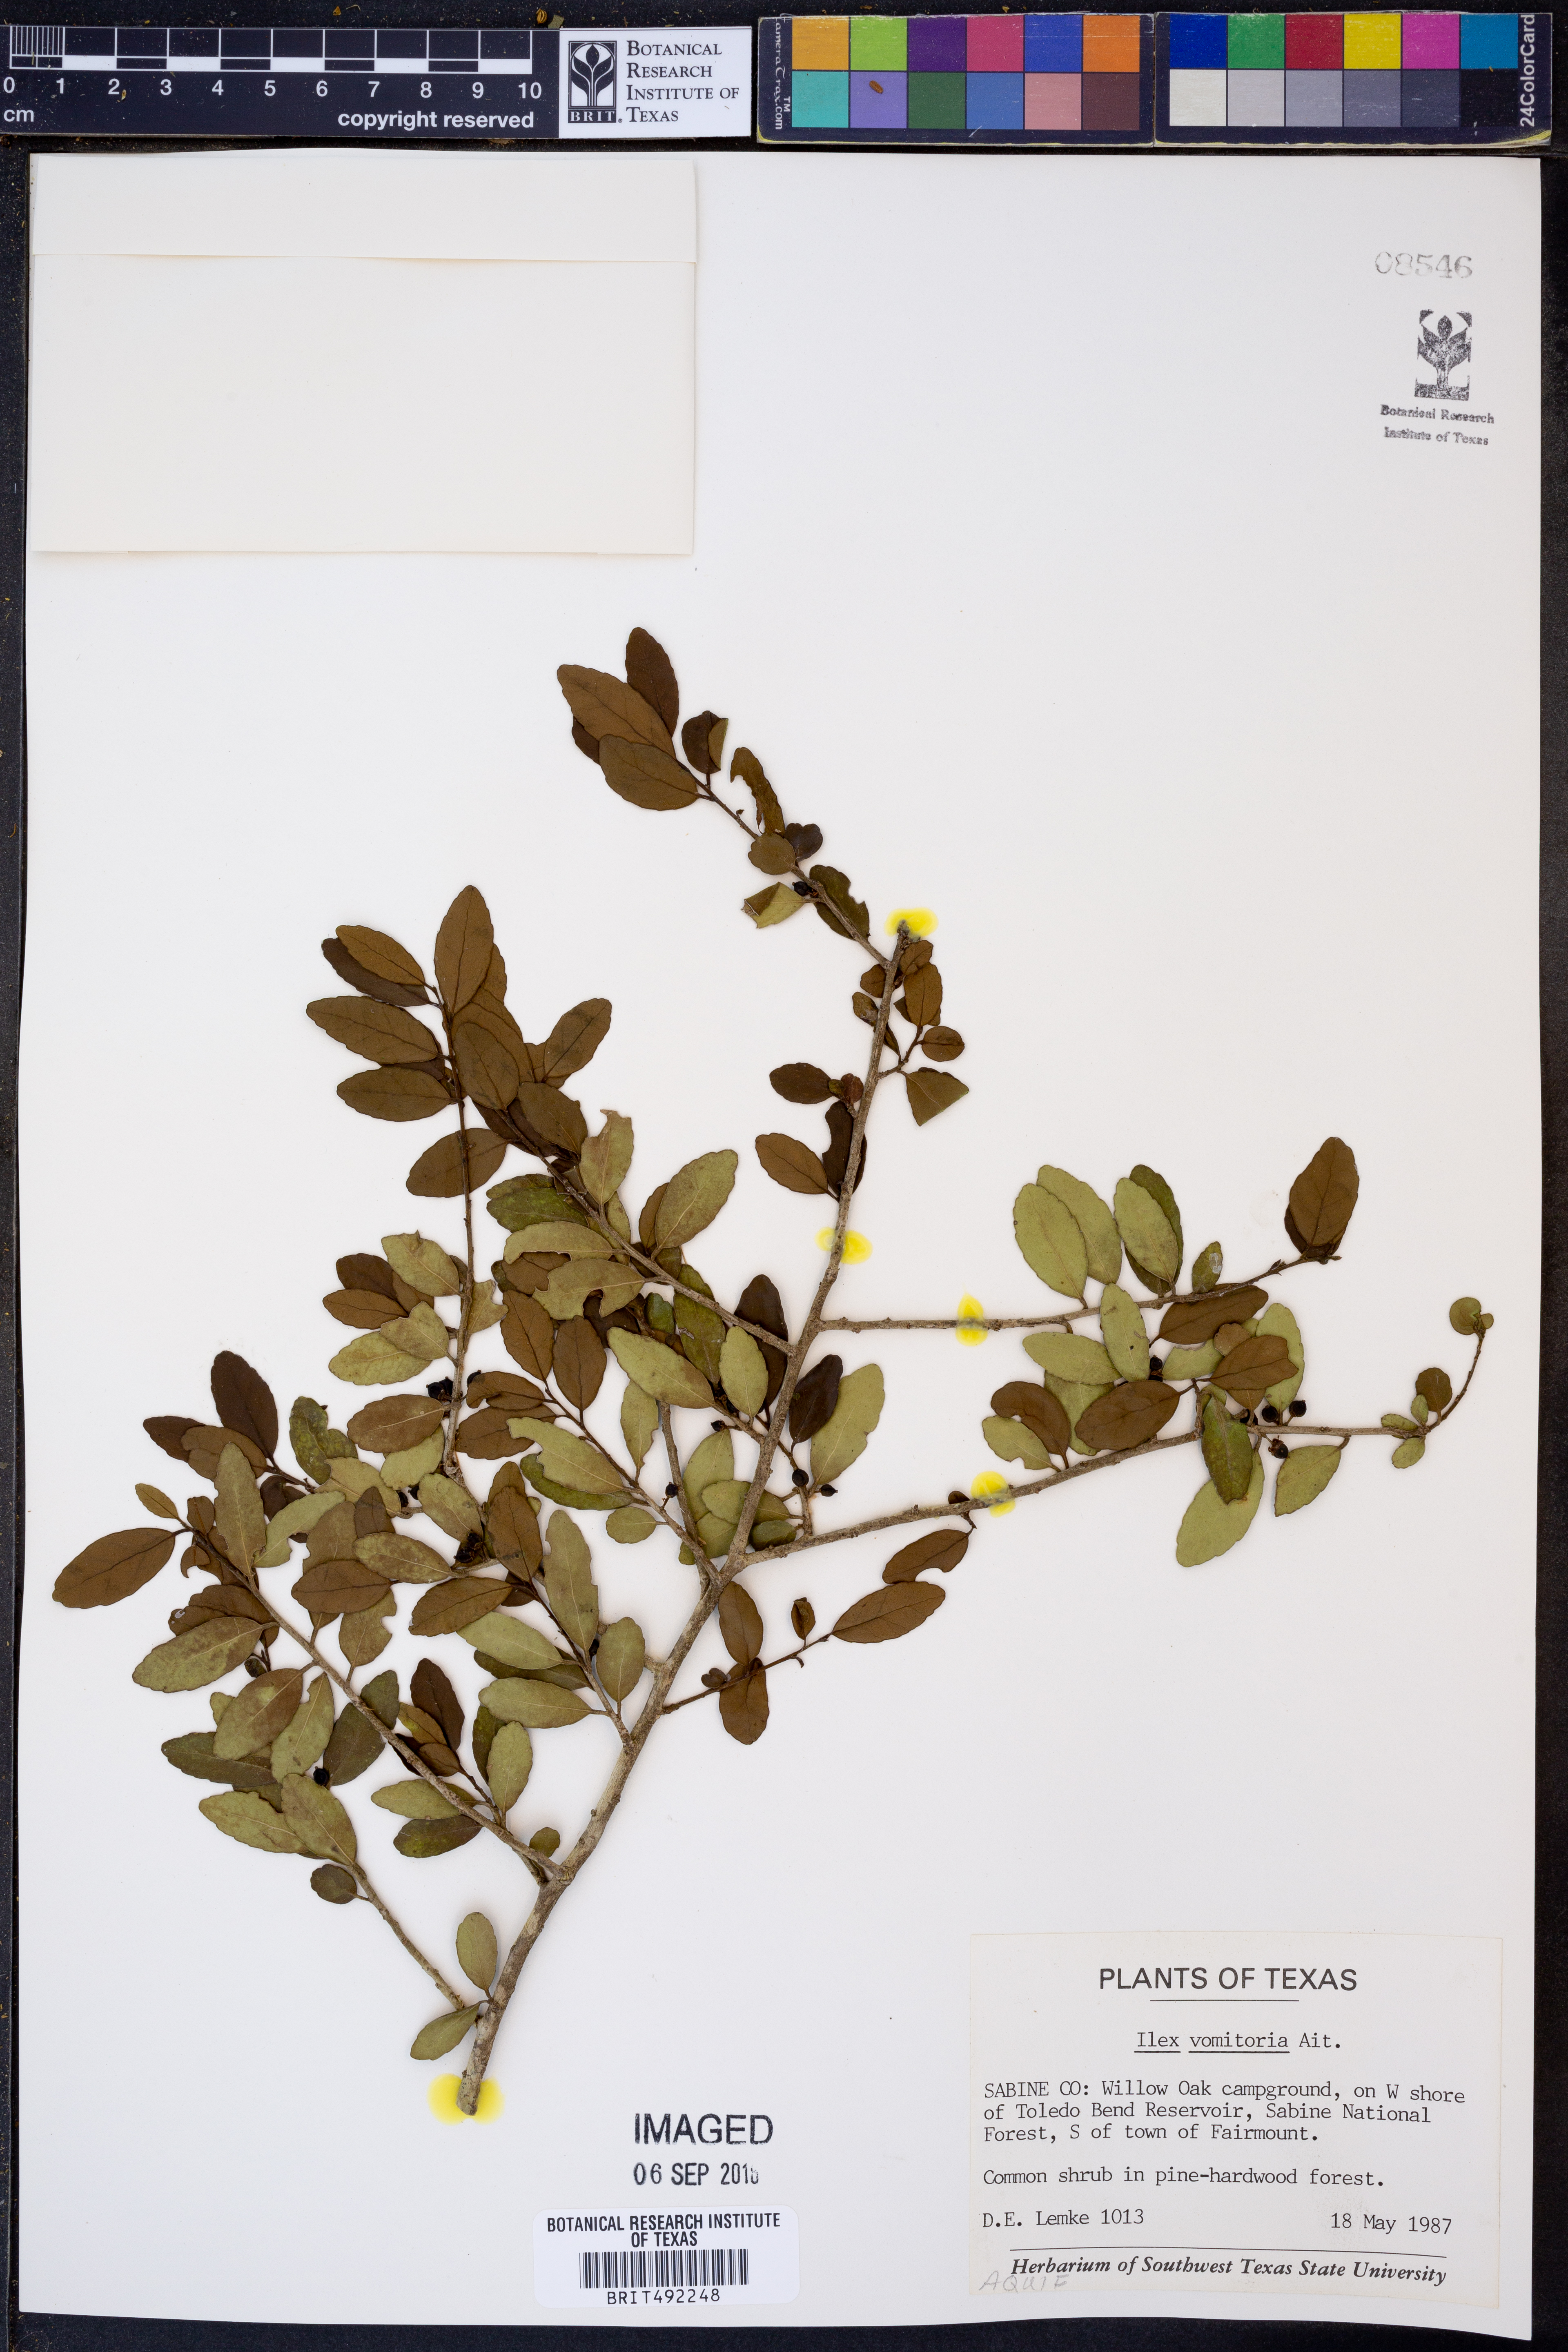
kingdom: Plantae
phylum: Tracheophyta
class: Magnoliopsida
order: Aquifoliales
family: Aquifoliaceae
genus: Ilex
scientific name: Ilex vomitoria
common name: Yaupon holly
